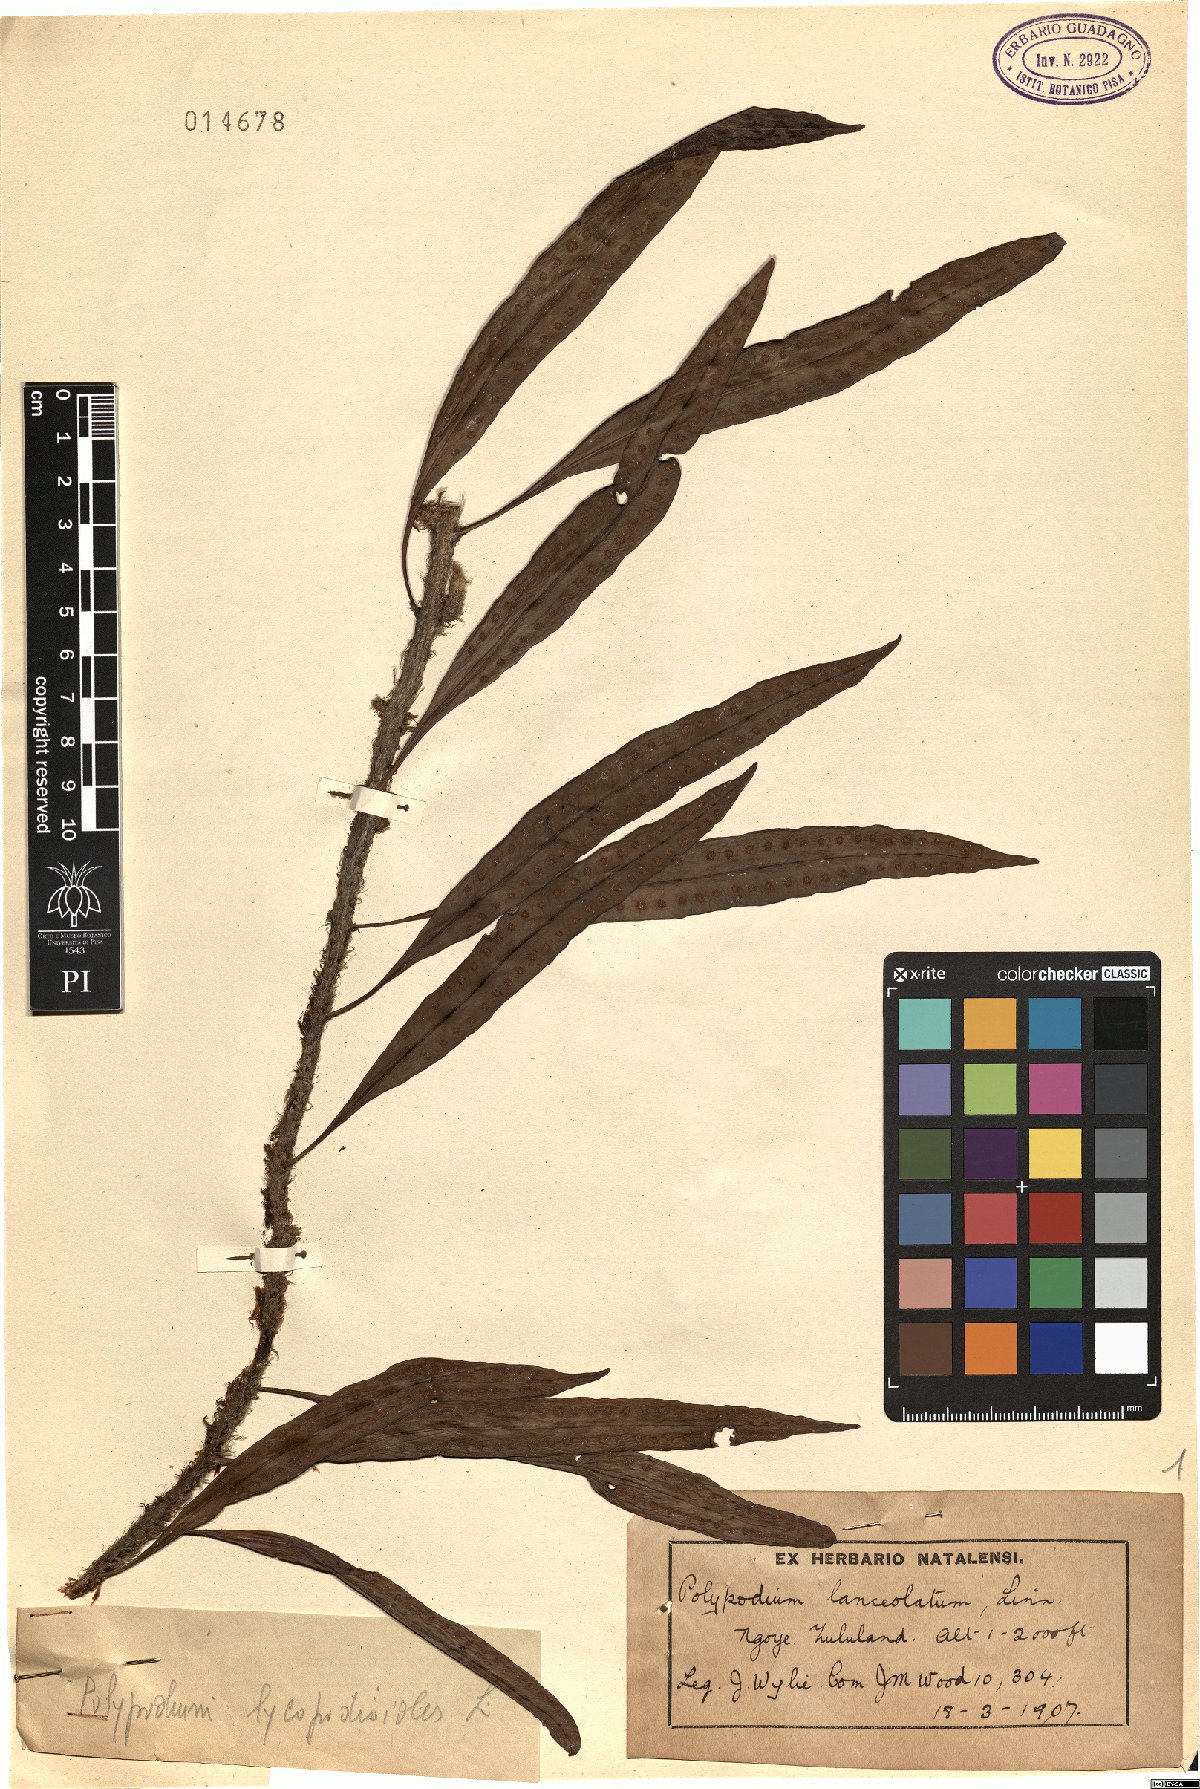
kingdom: Plantae
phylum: Tracheophyta
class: Polypodiopsida
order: Polypodiales
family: Polypodiaceae
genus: Pleopeltis
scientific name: Pleopeltis macrocarpa
